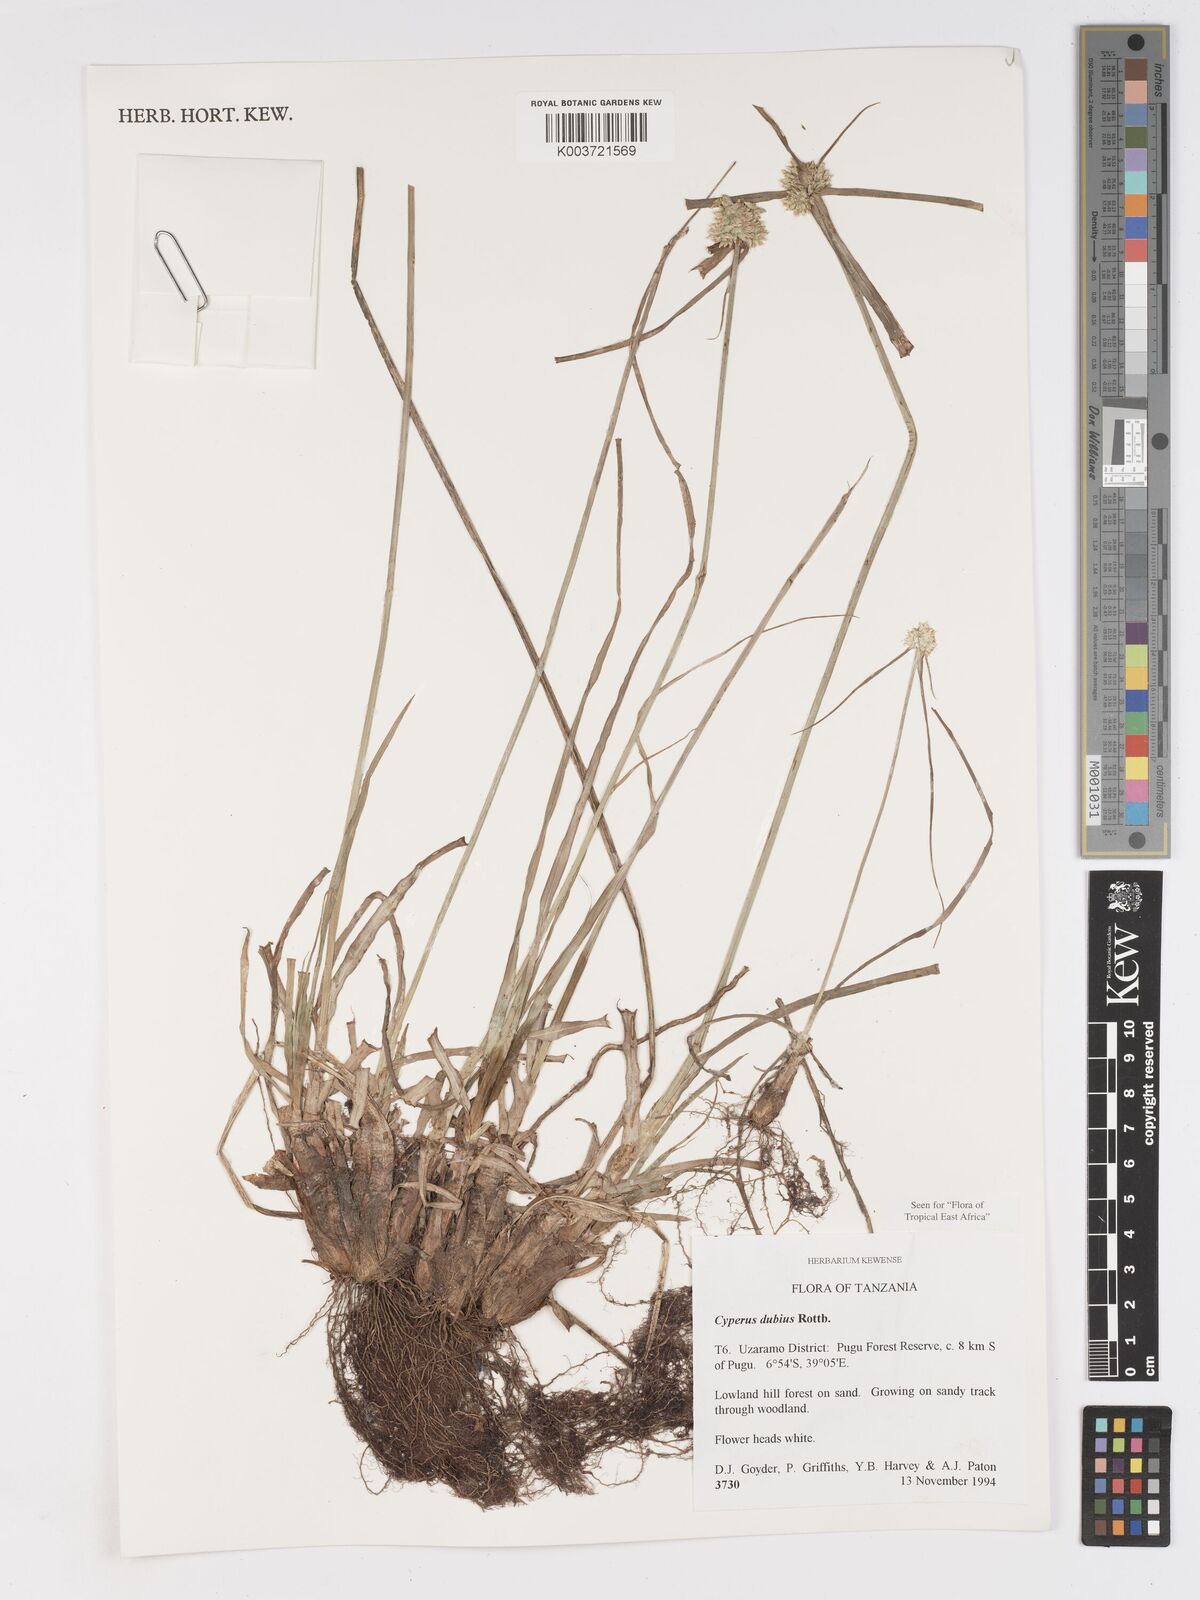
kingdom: Plantae
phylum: Tracheophyta
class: Liliopsida
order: Poales
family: Cyperaceae
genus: Cyperus
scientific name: Cyperus dubius
